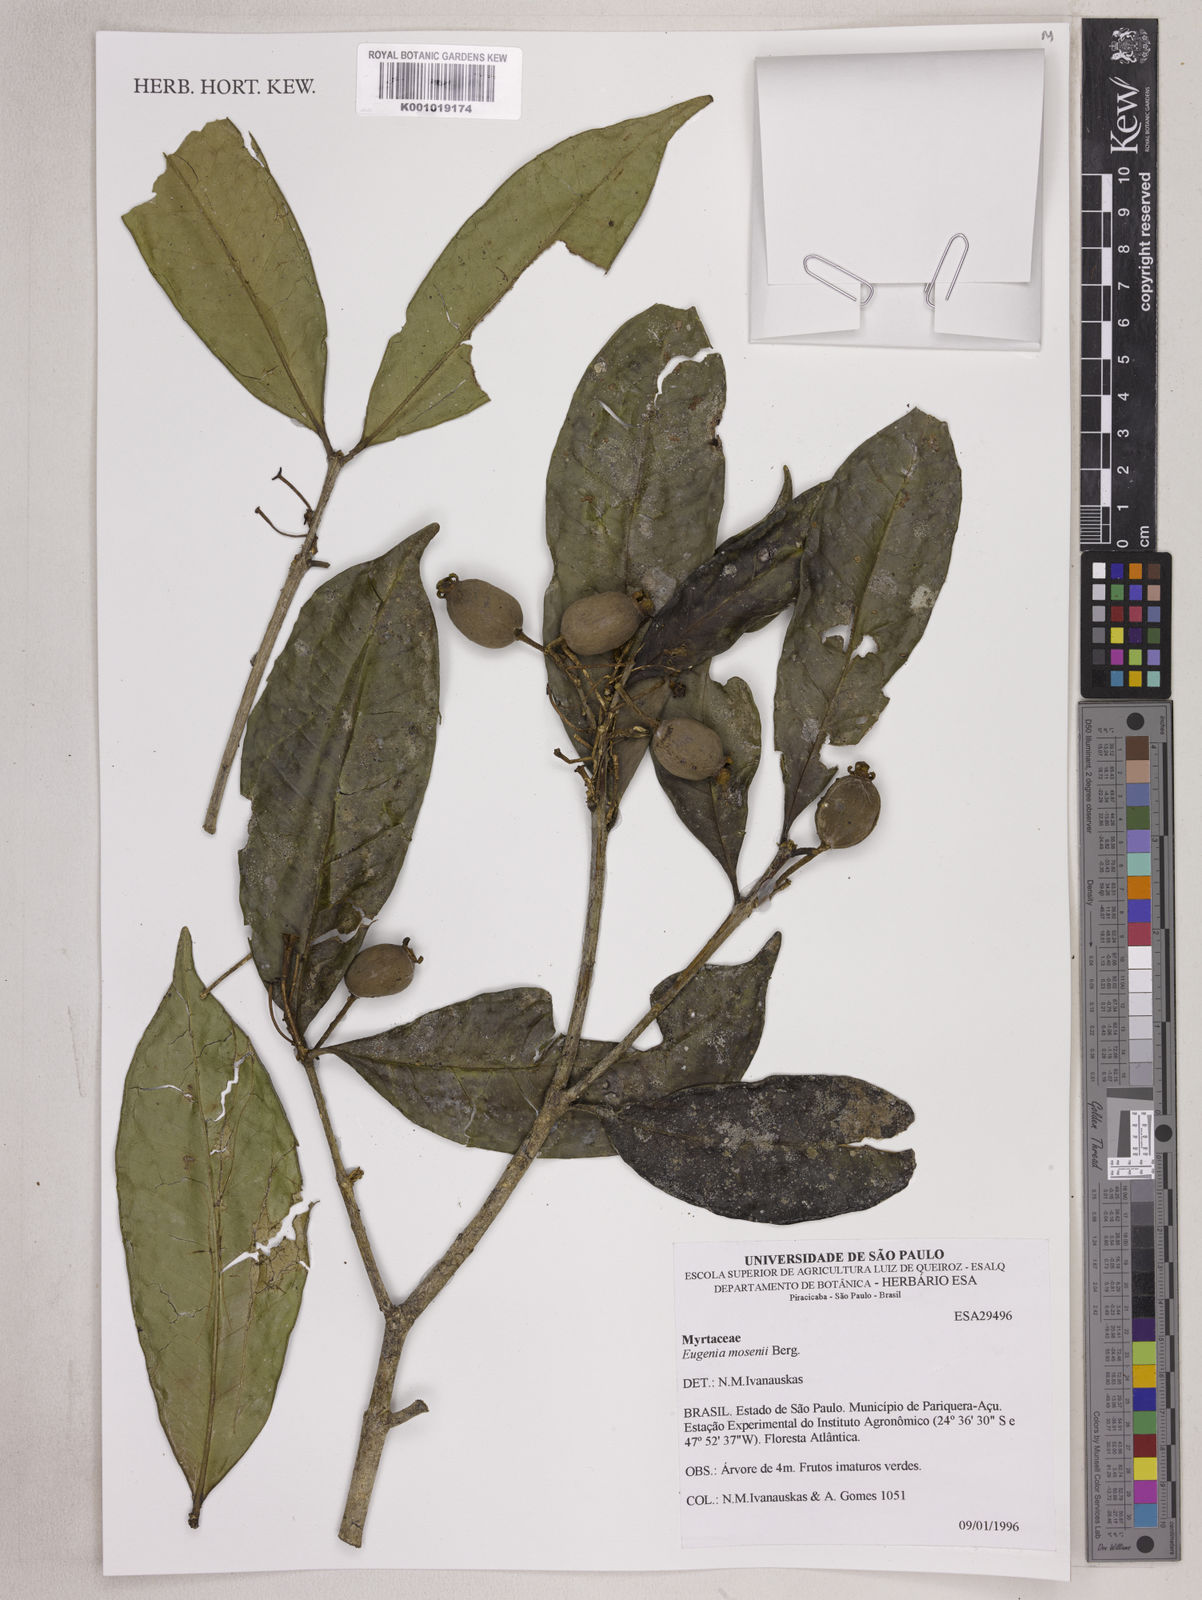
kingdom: Plantae
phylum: Tracheophyta
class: Magnoliopsida
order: Myrtales
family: Myrtaceae
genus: Eugenia
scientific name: Eugenia mosenii
